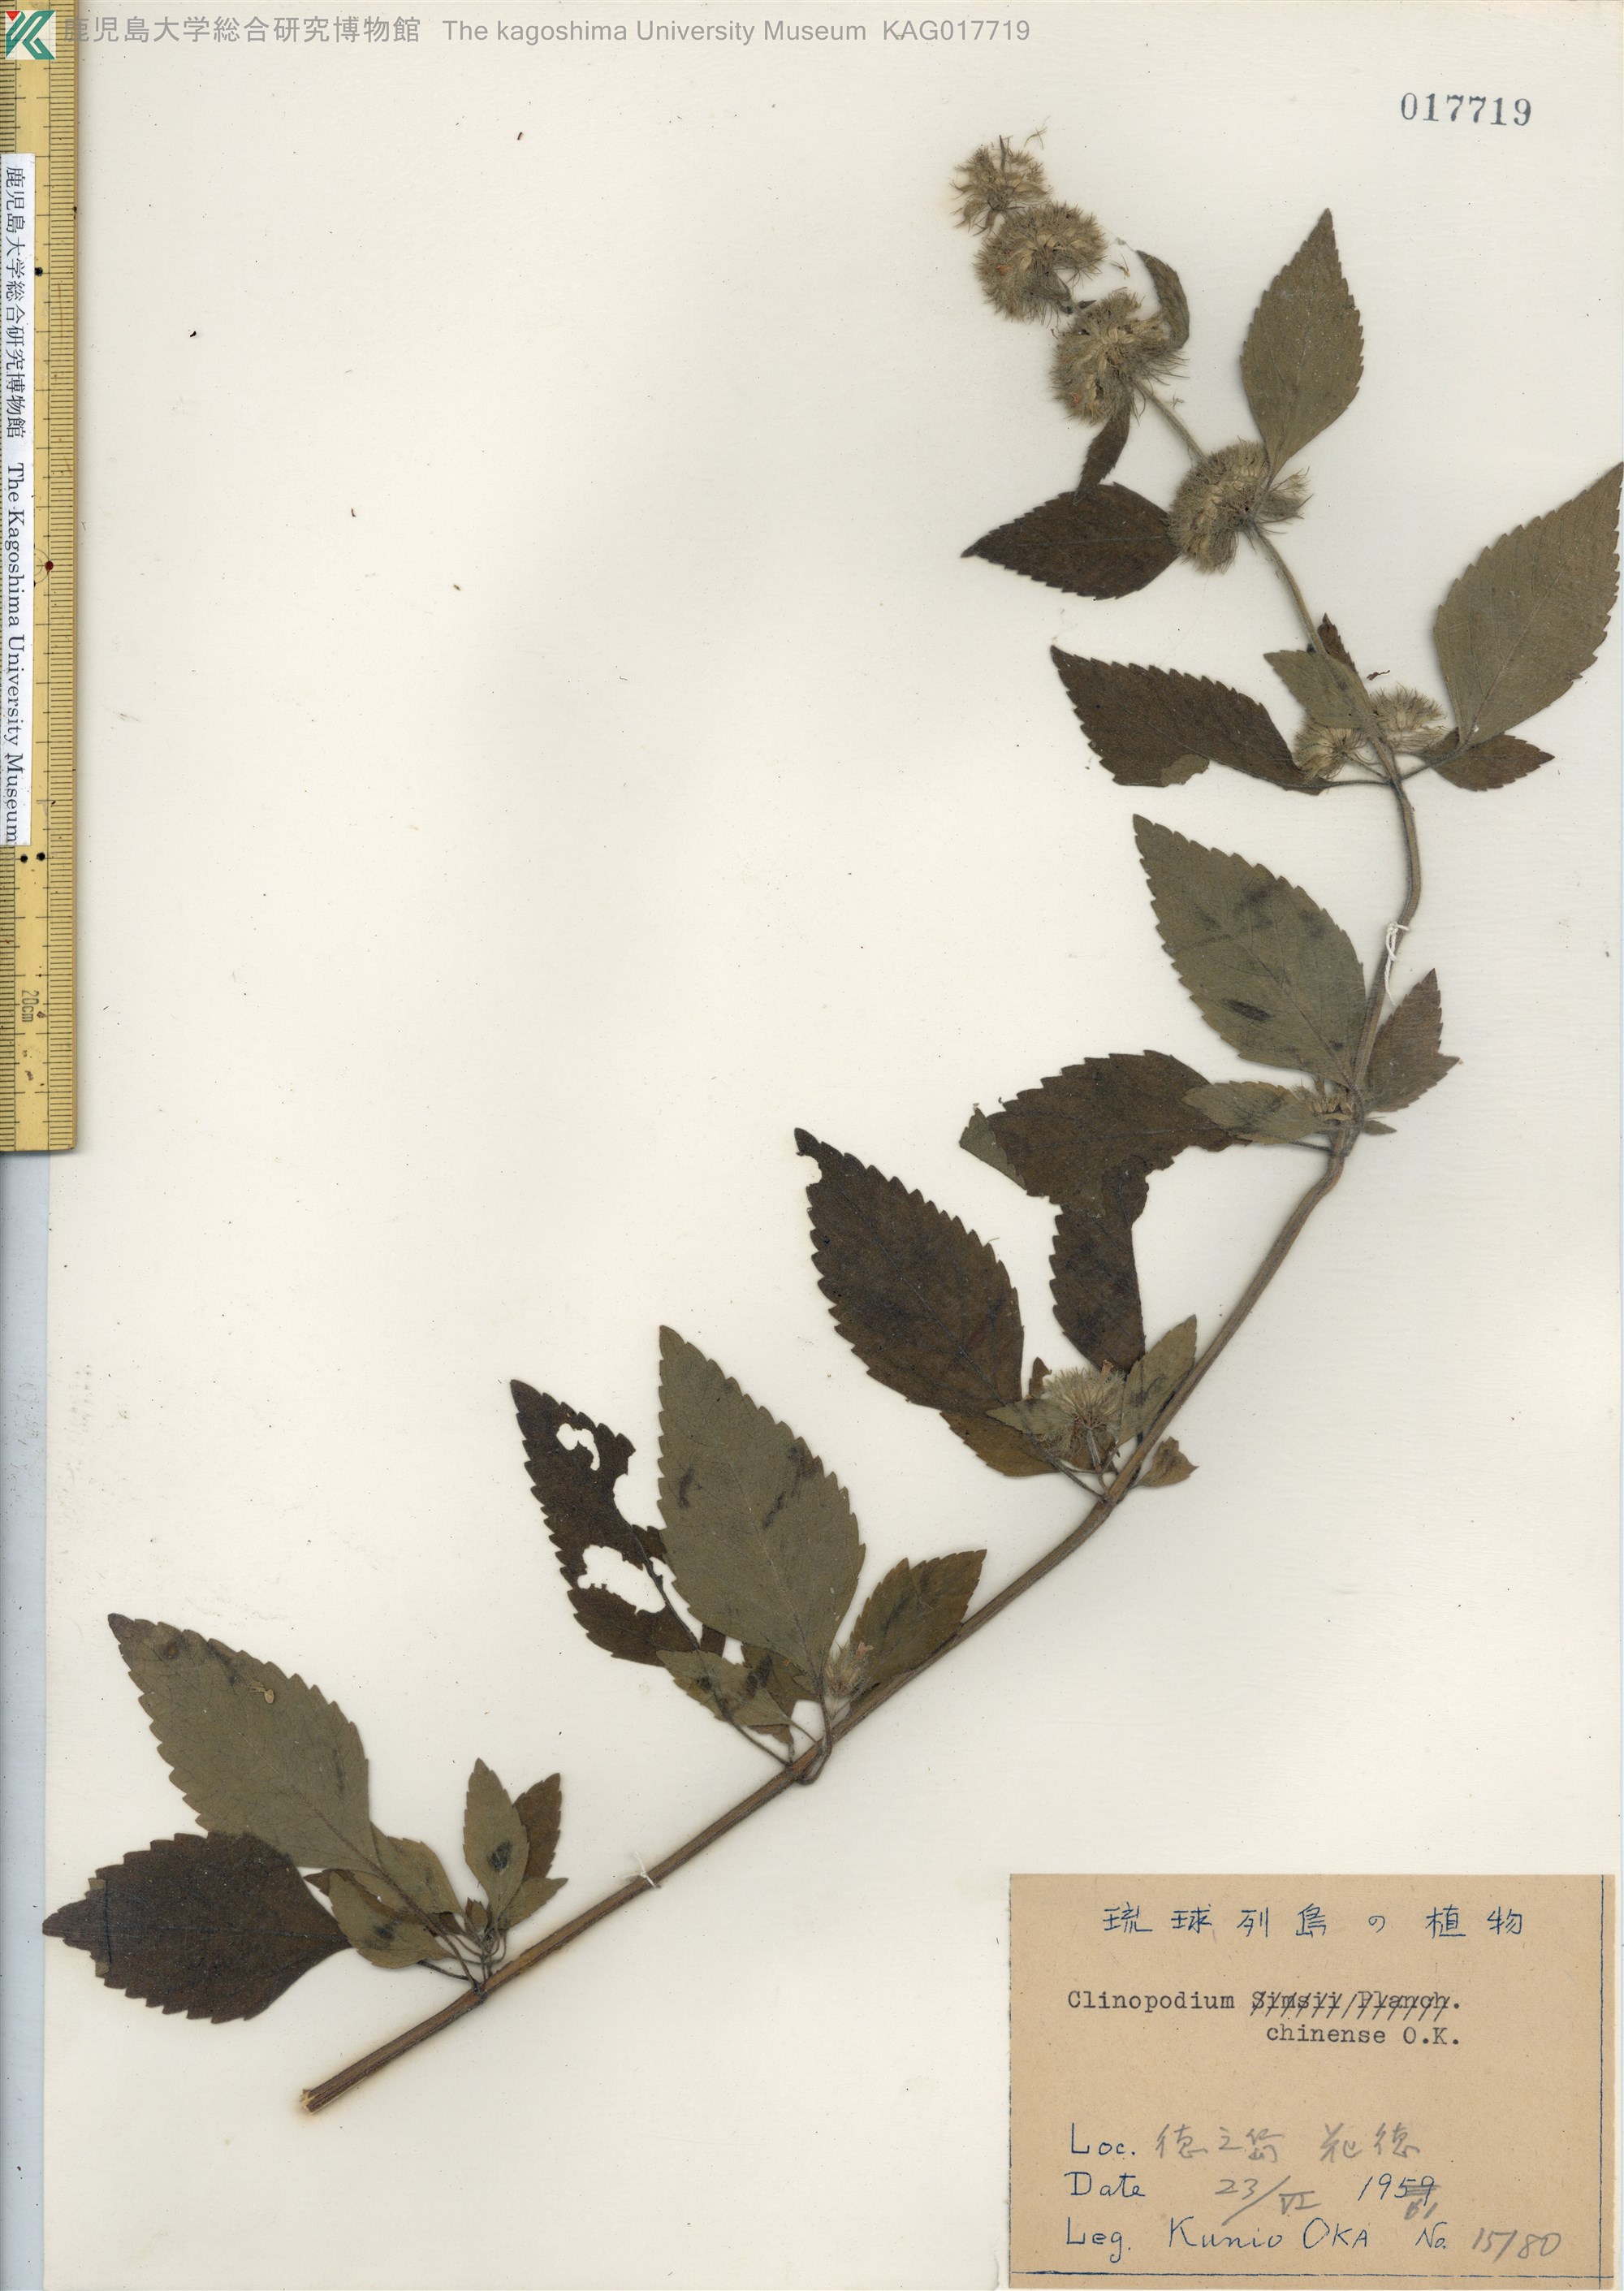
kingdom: Plantae
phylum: Tracheophyta
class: Magnoliopsida
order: Lamiales
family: Lamiaceae
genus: Clinopodium
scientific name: Clinopodium chinense
